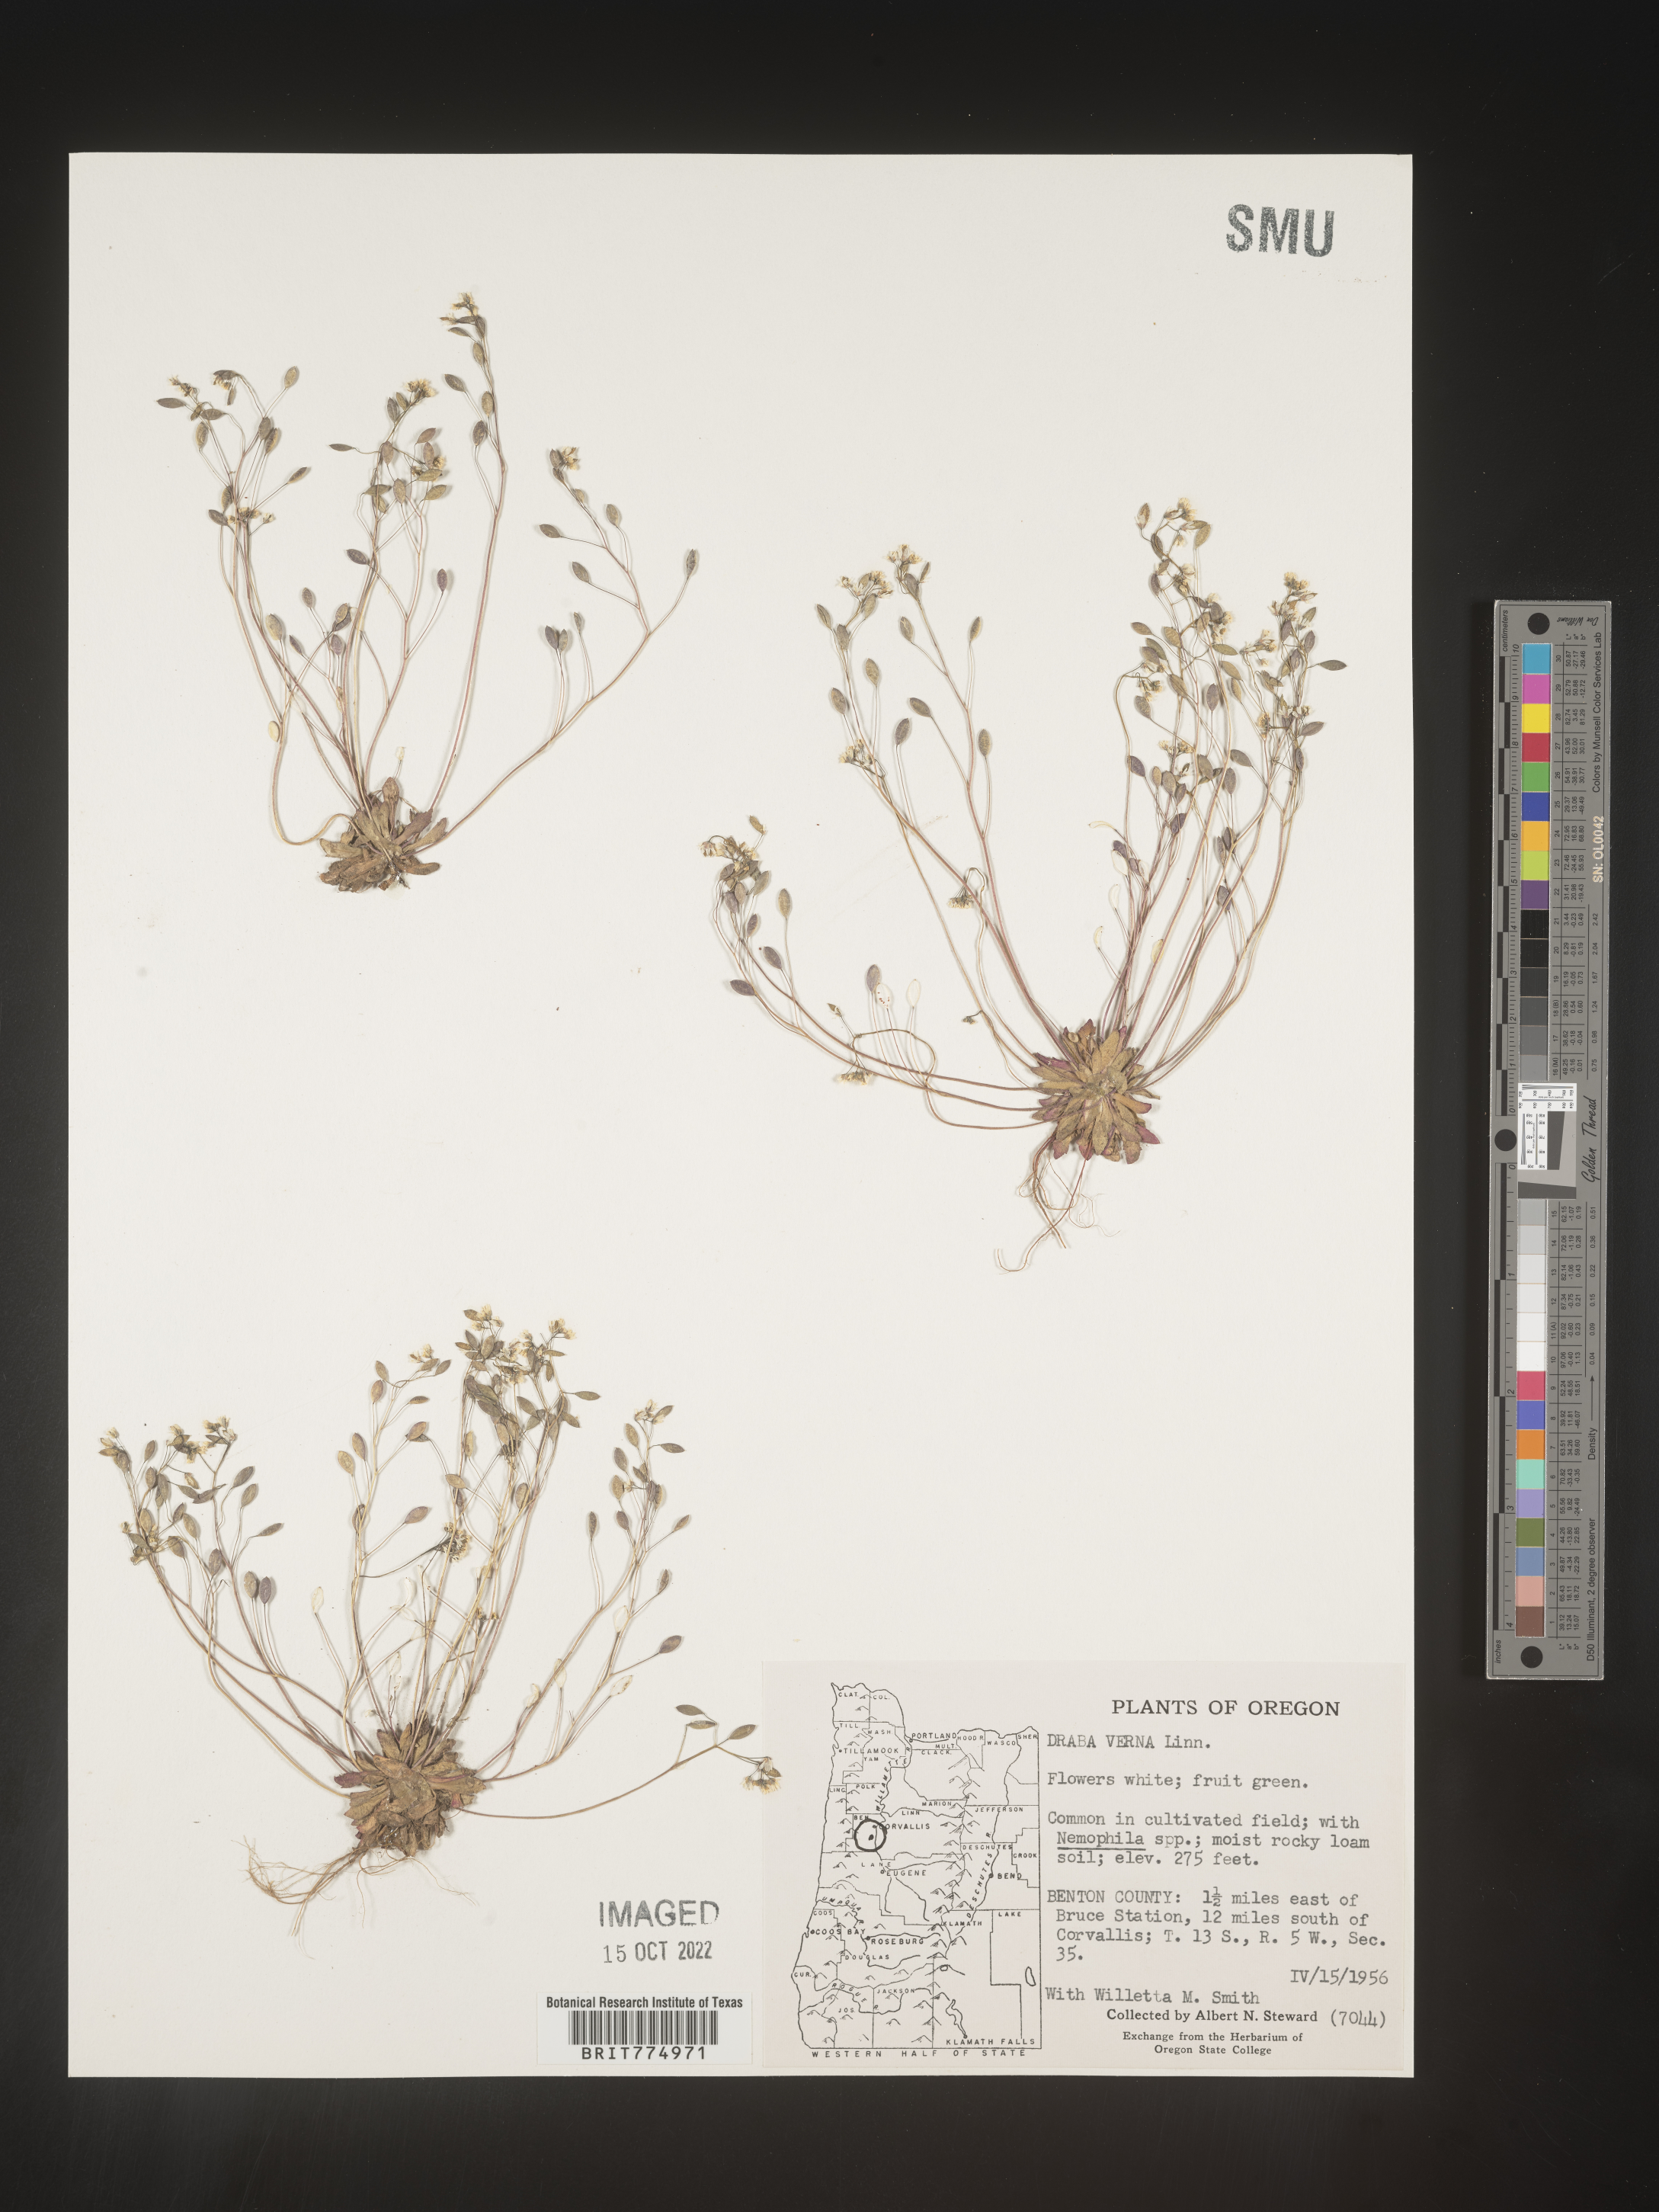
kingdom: Plantae
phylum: Tracheophyta
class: Magnoliopsida
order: Brassicales
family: Brassicaceae
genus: Draba
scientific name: Draba verna
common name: Spring draba
